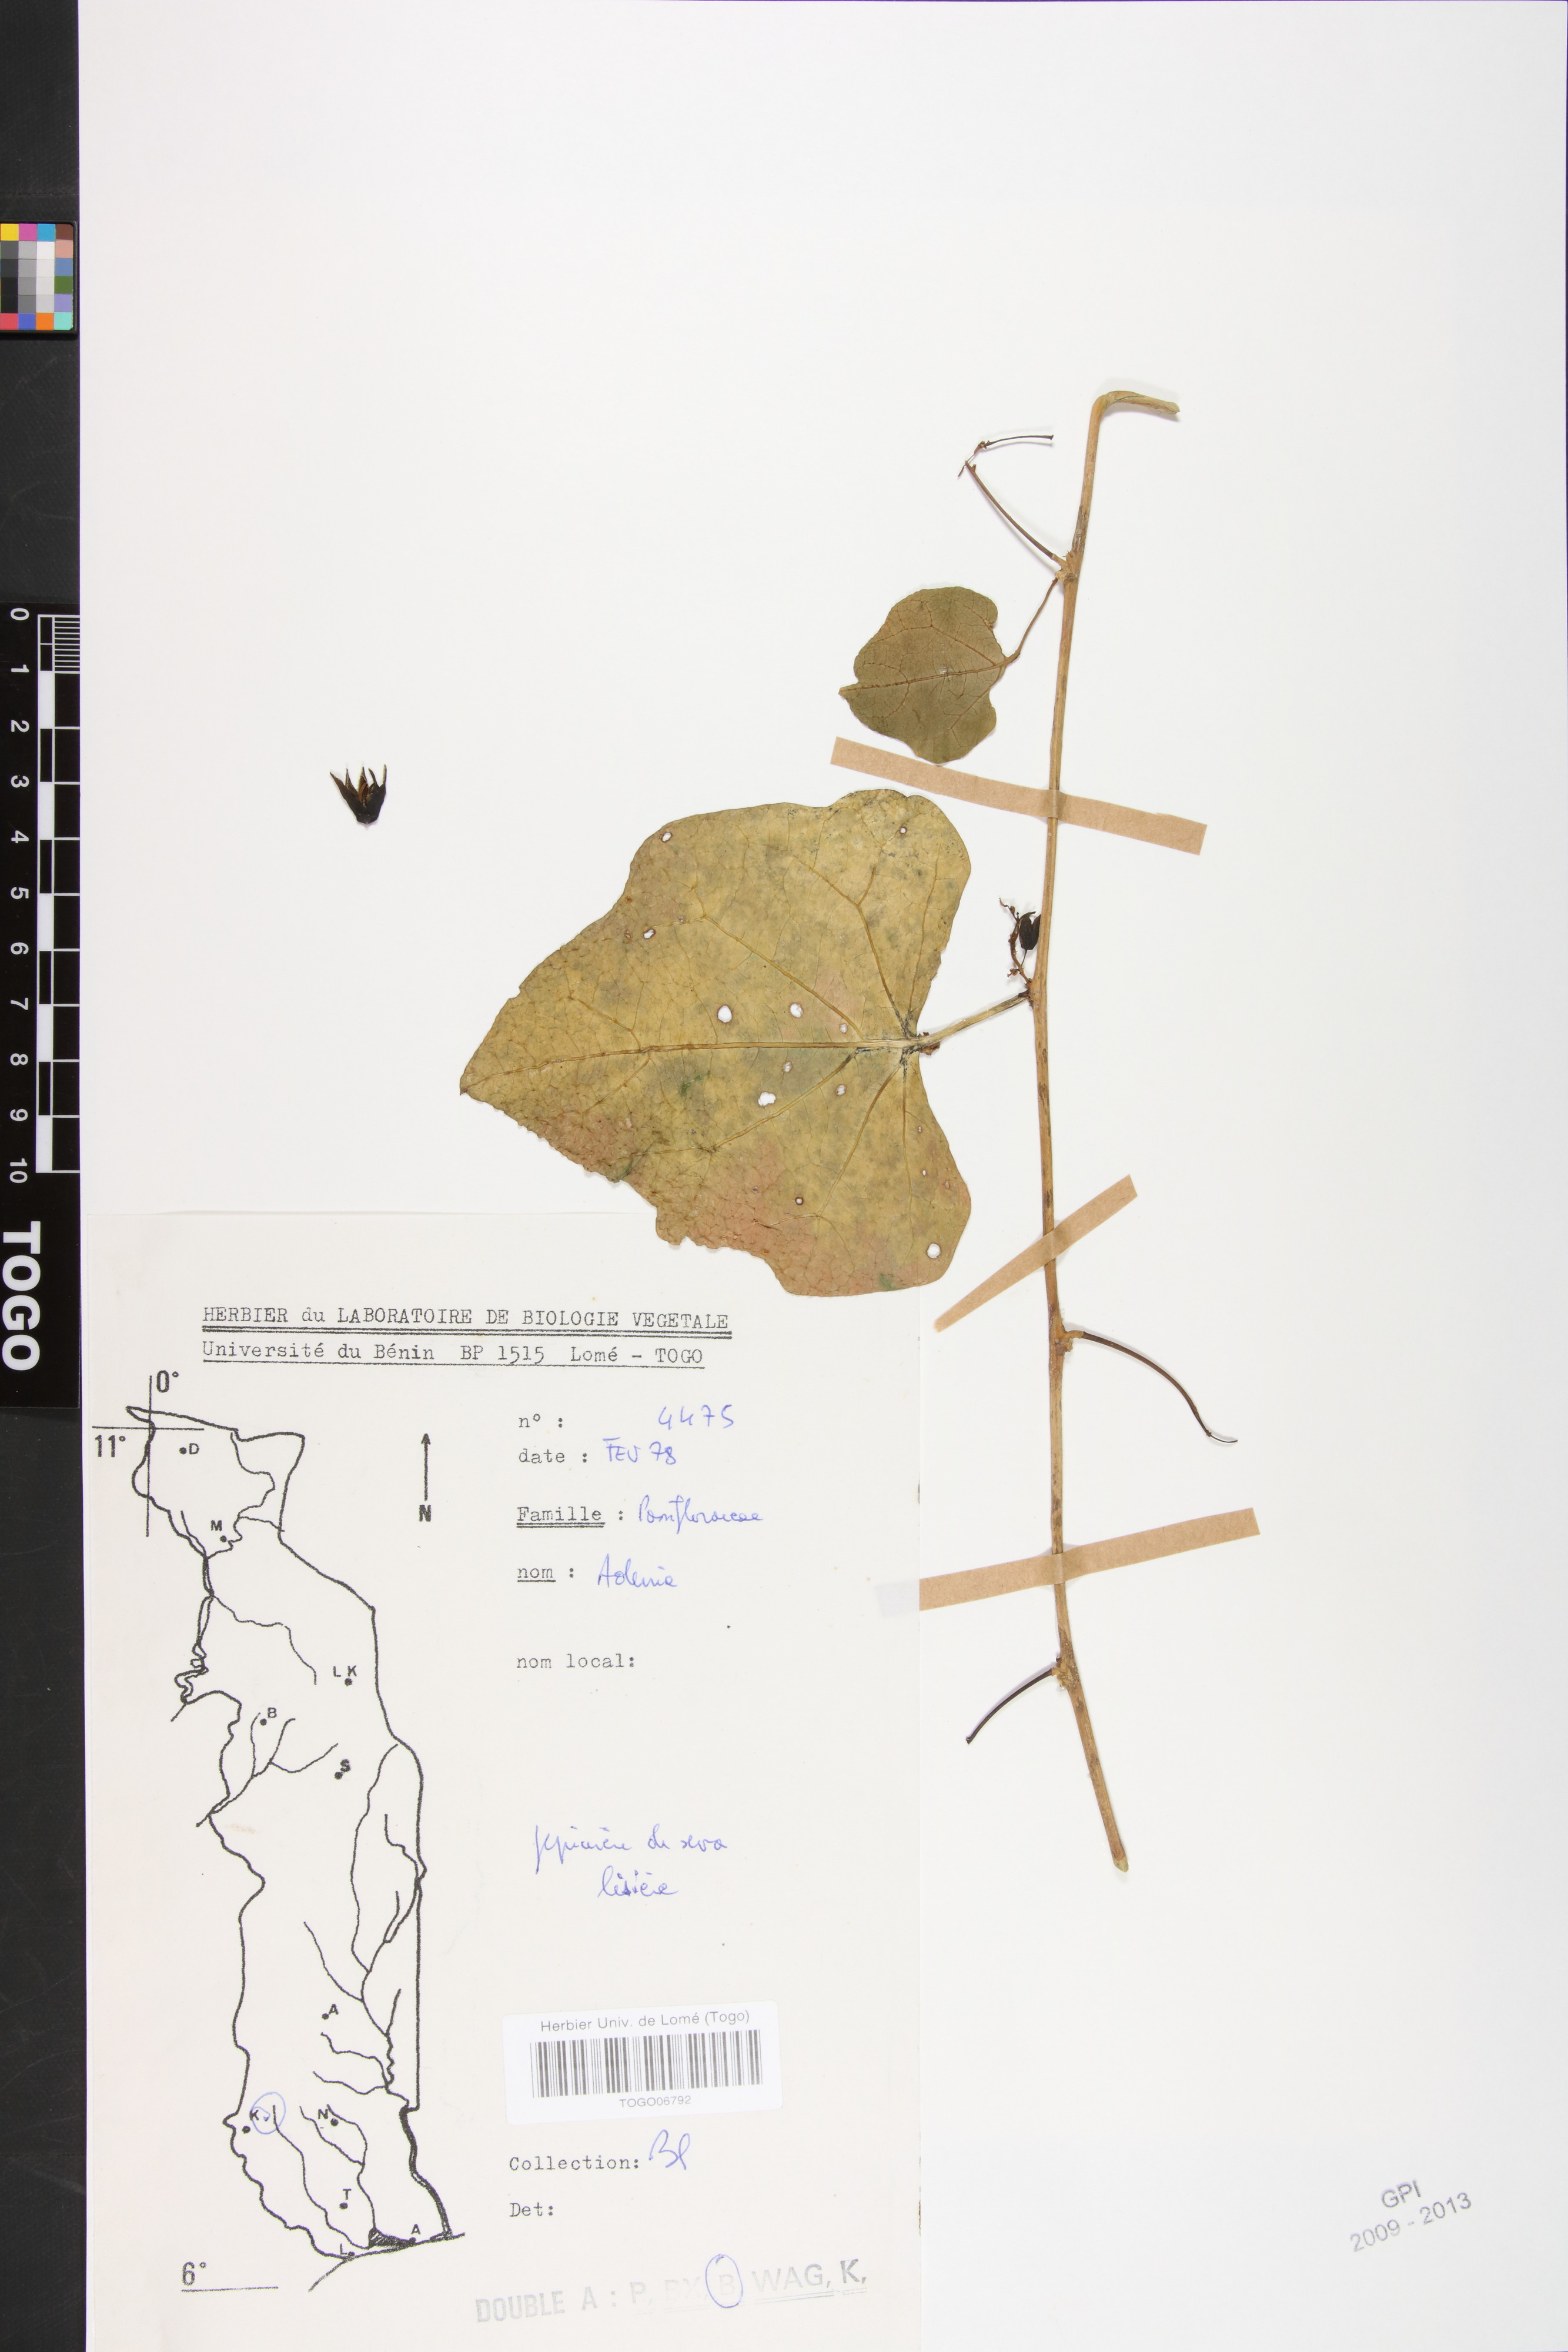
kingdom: Plantae
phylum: Tracheophyta
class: Magnoliopsida
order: Malpighiales
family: Passifloraceae
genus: Adenia
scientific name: Adenia lobata
